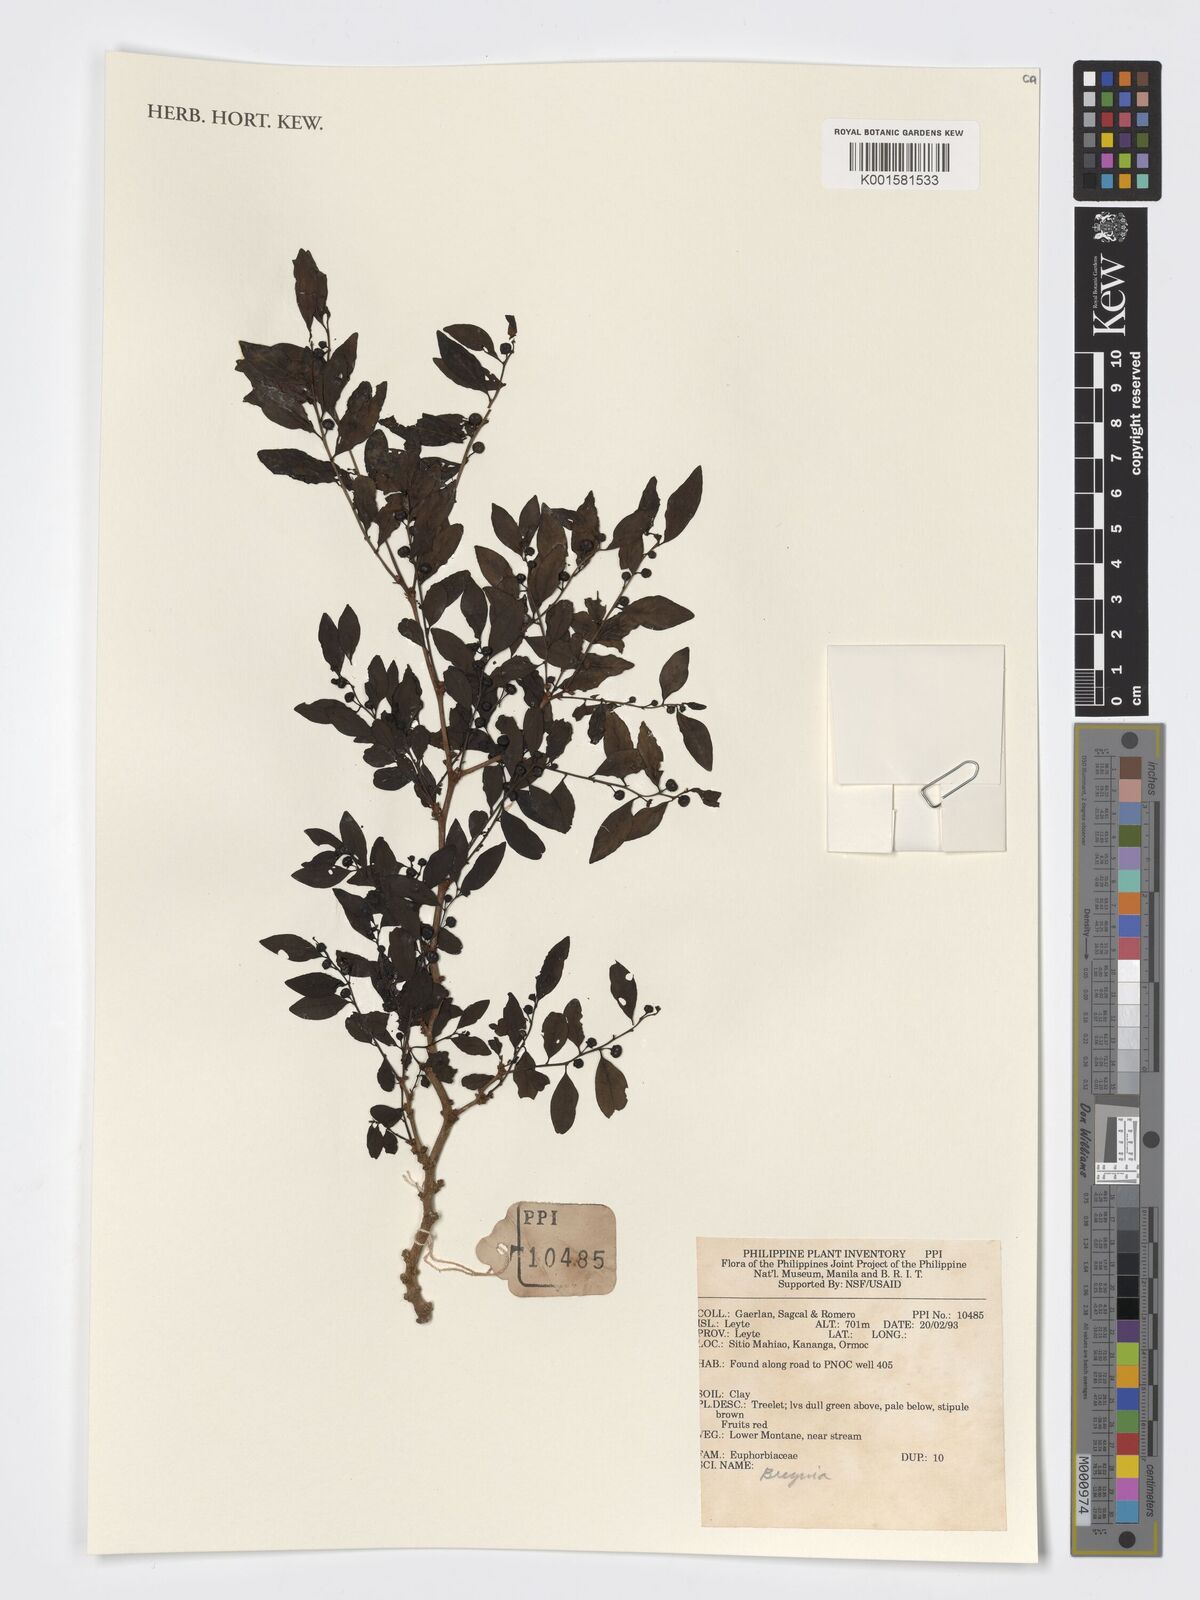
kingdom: Plantae
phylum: Tracheophyta
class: Magnoliopsida
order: Malpighiales
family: Phyllanthaceae
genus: Breynia
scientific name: Breynia
